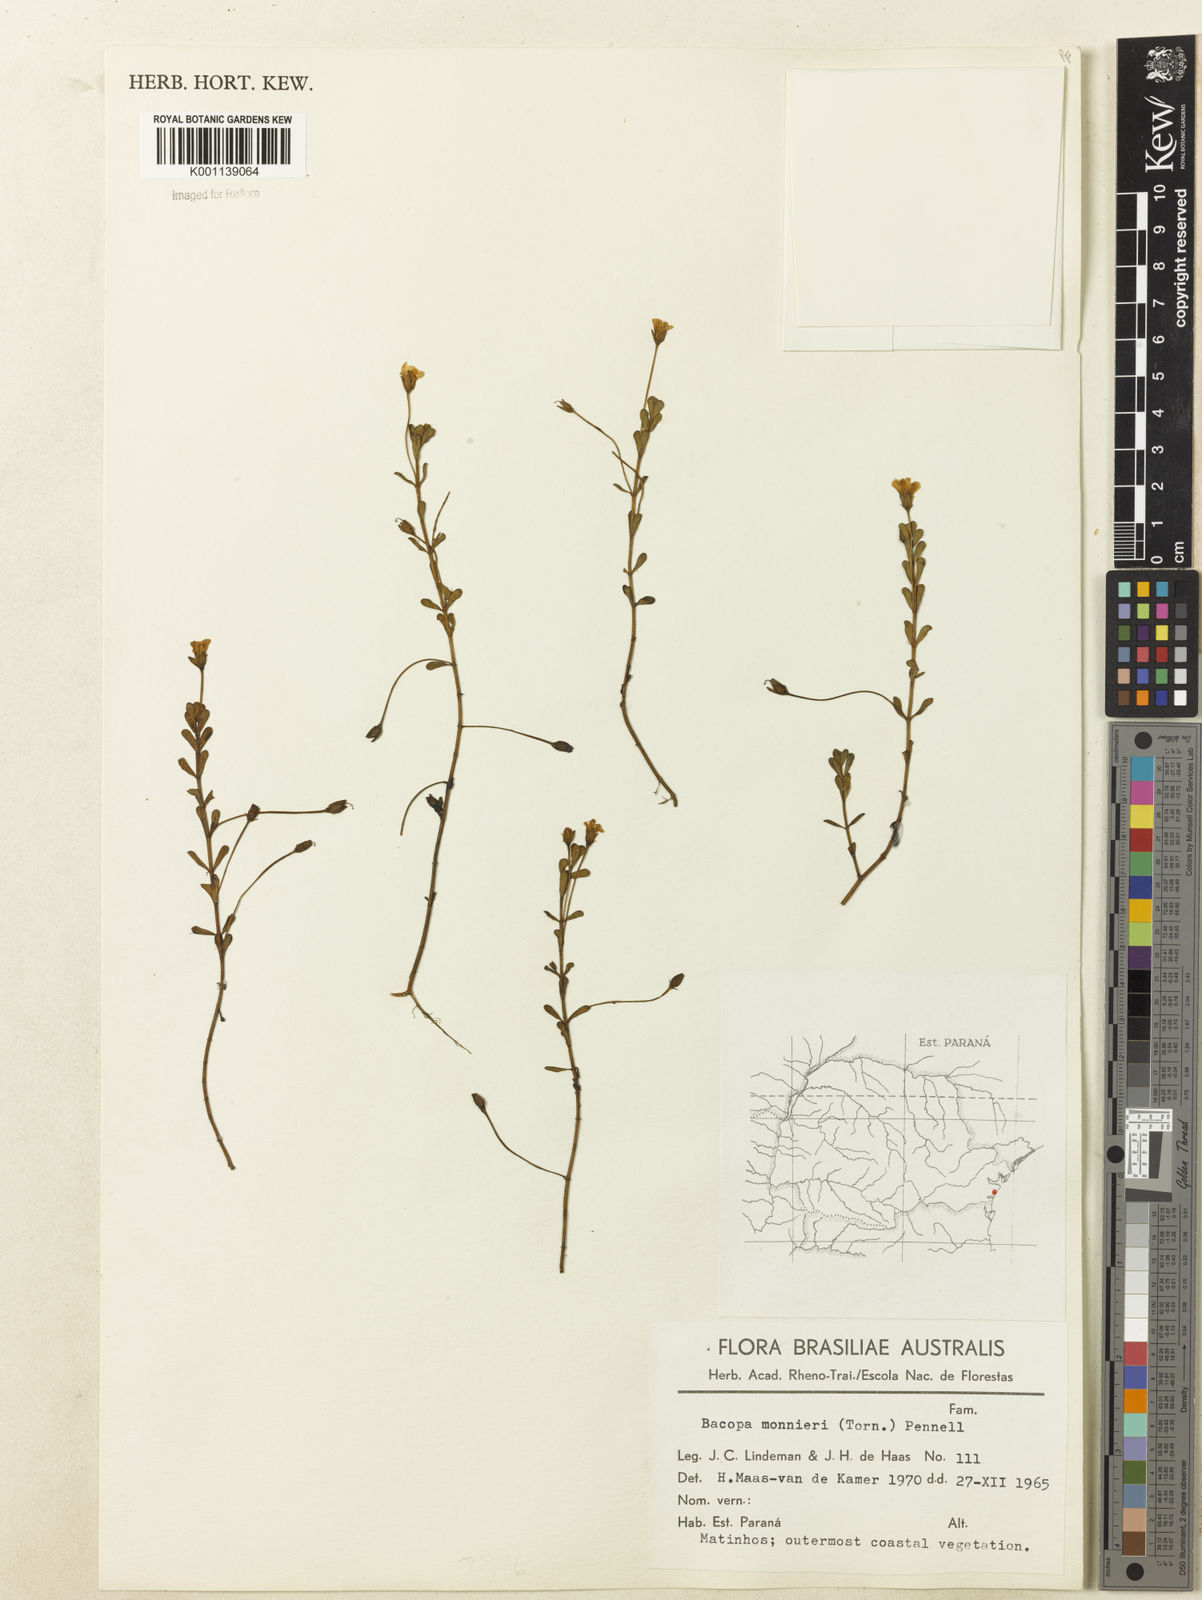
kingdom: Plantae
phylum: Tracheophyta
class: Magnoliopsida
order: Lamiales
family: Plantaginaceae
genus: Bacopa
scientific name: Bacopa
